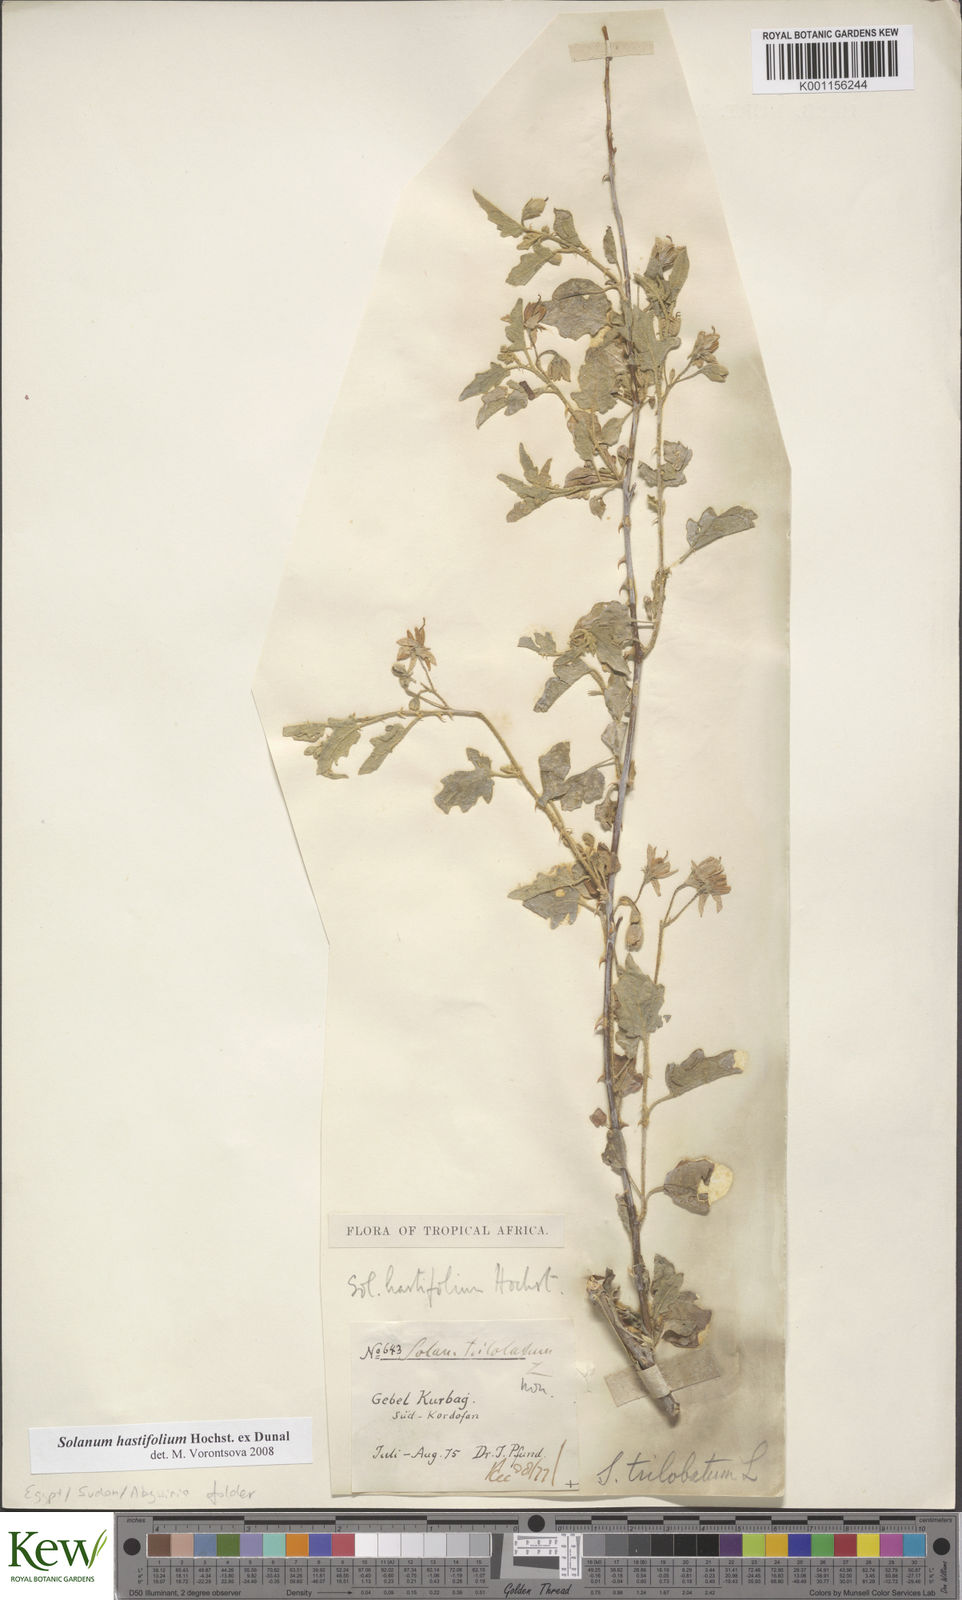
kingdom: Plantae
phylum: Tracheophyta
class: Magnoliopsida
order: Solanales
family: Solanaceae
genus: Solanum
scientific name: Solanum hastifolium
